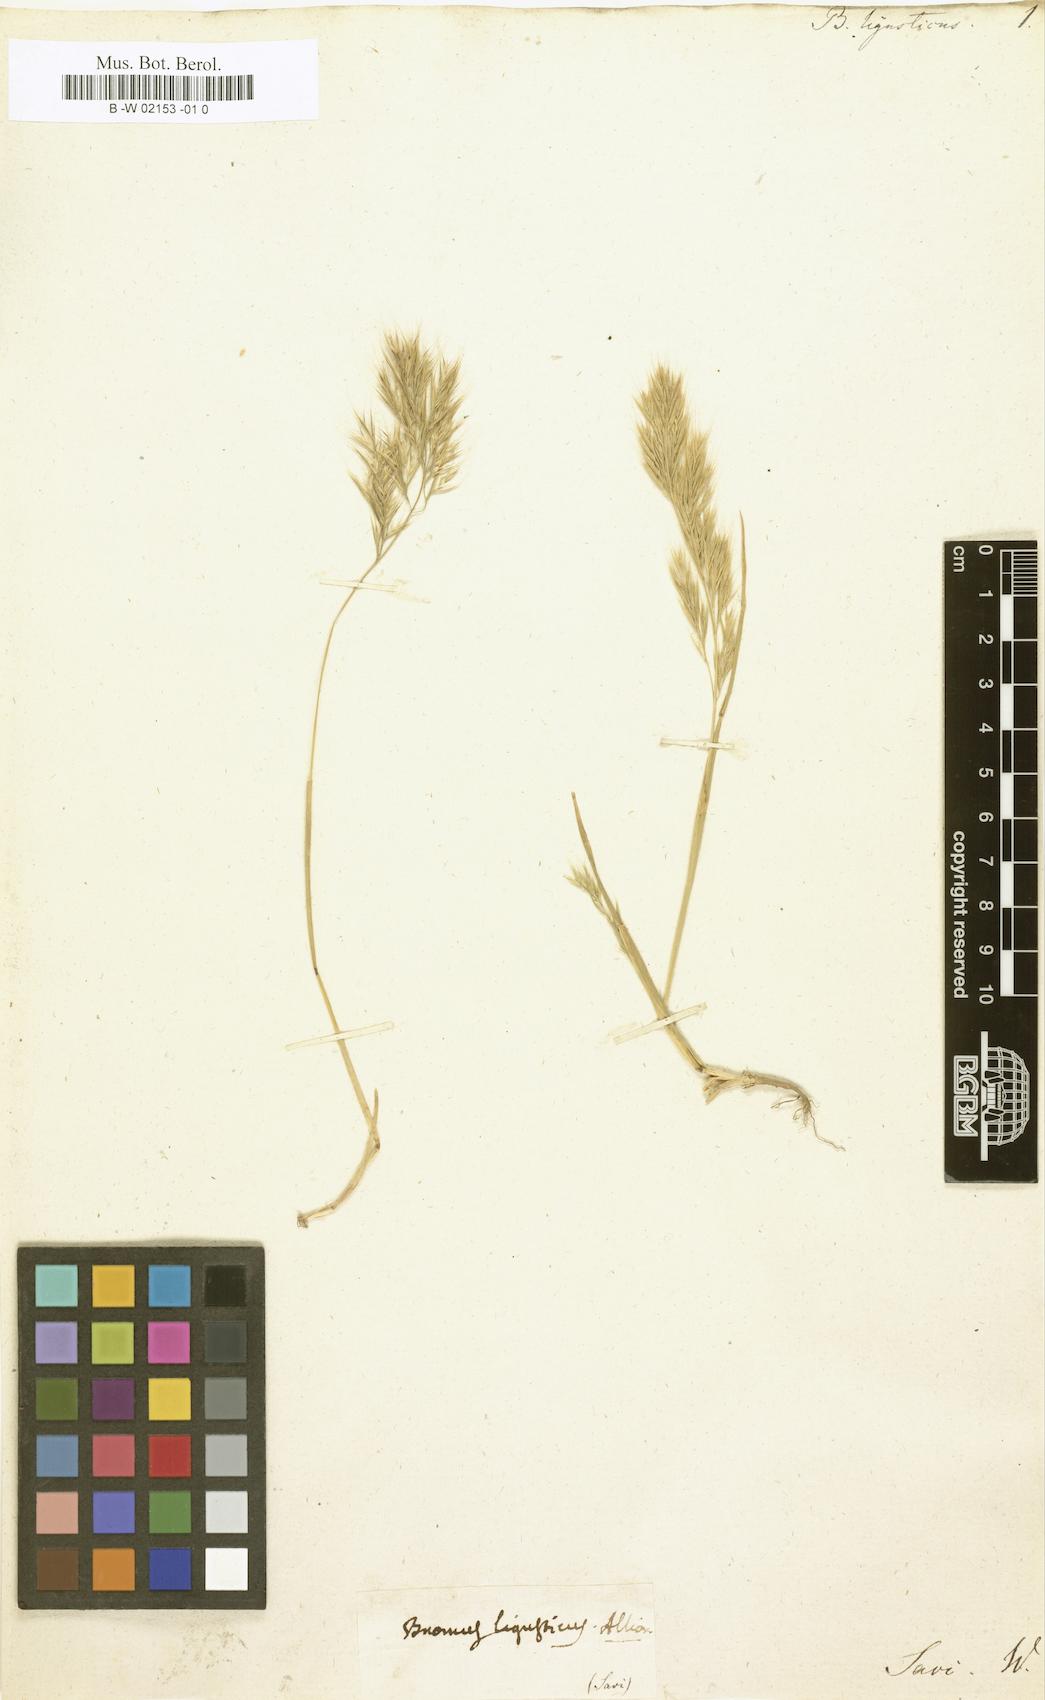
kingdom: Plantae
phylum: Tracheophyta
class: Liliopsida
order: Poales
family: Poaceae
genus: Festuca
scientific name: Festuca ligustica
